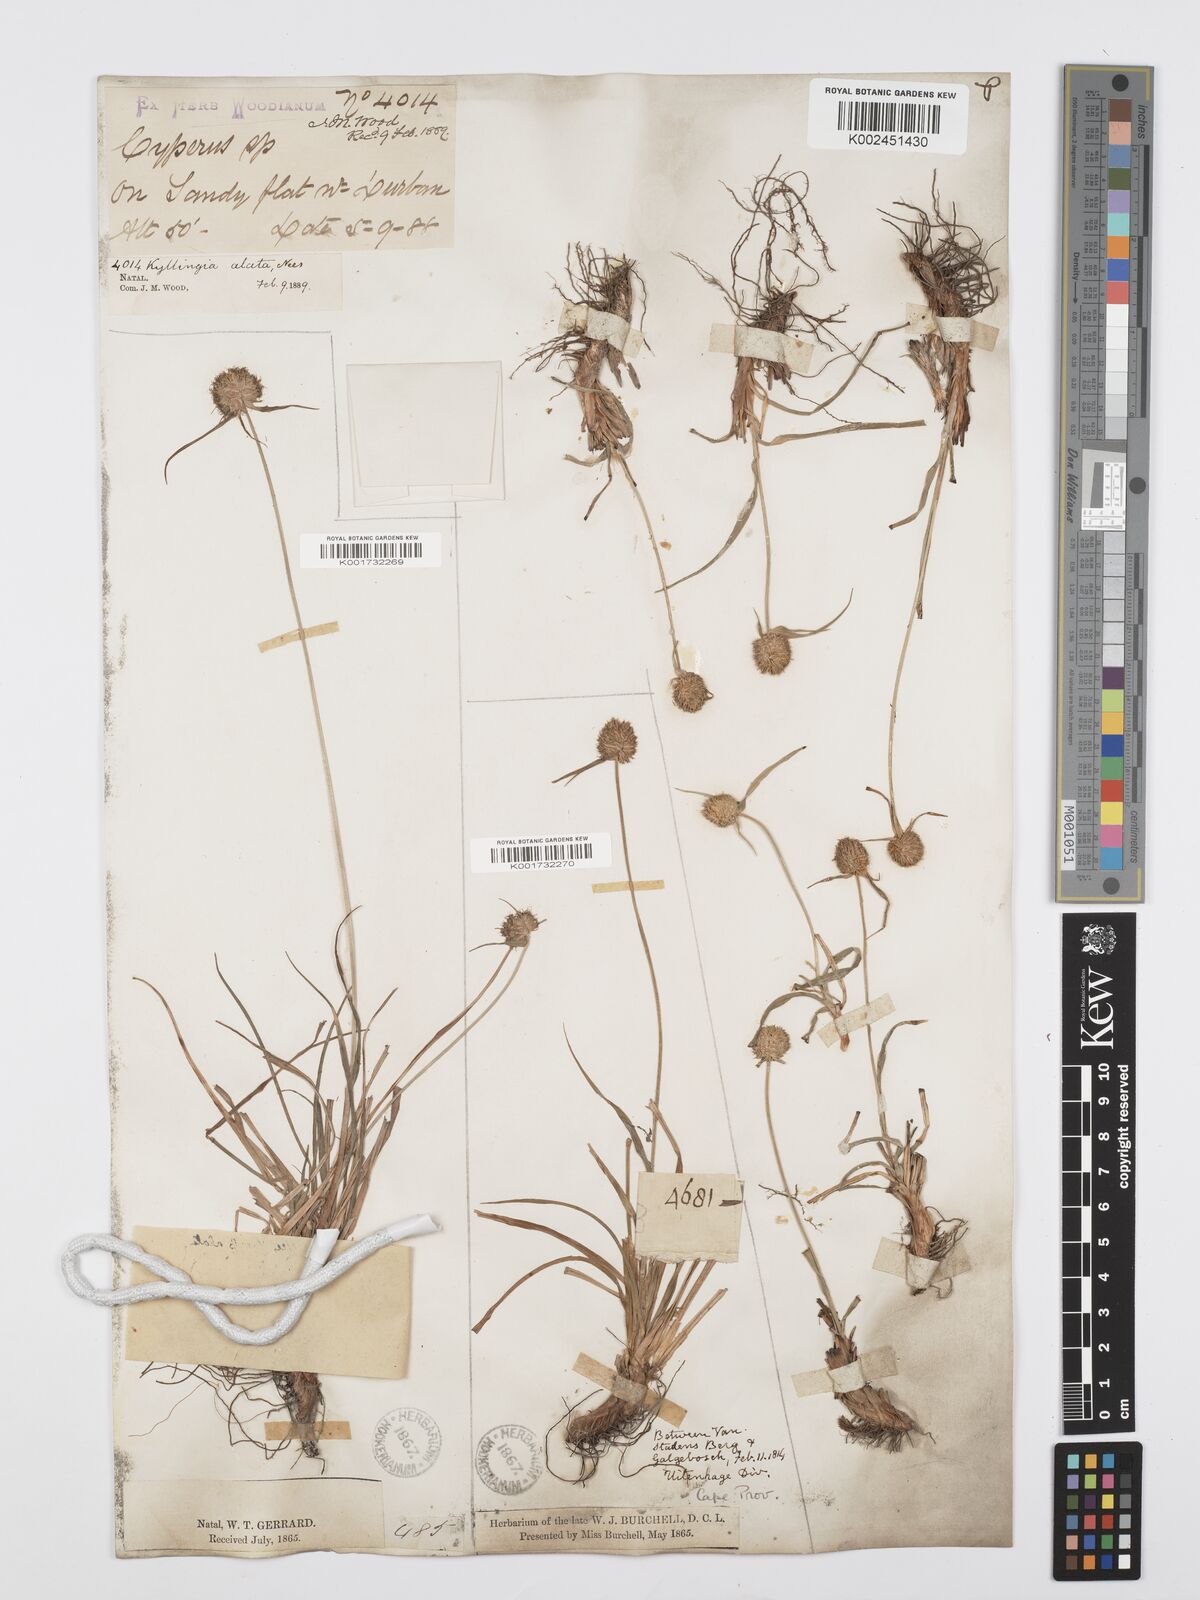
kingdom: Plantae
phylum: Tracheophyta
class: Liliopsida
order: Poales
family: Cyperaceae
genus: Cyperus
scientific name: Cyperus alatus
